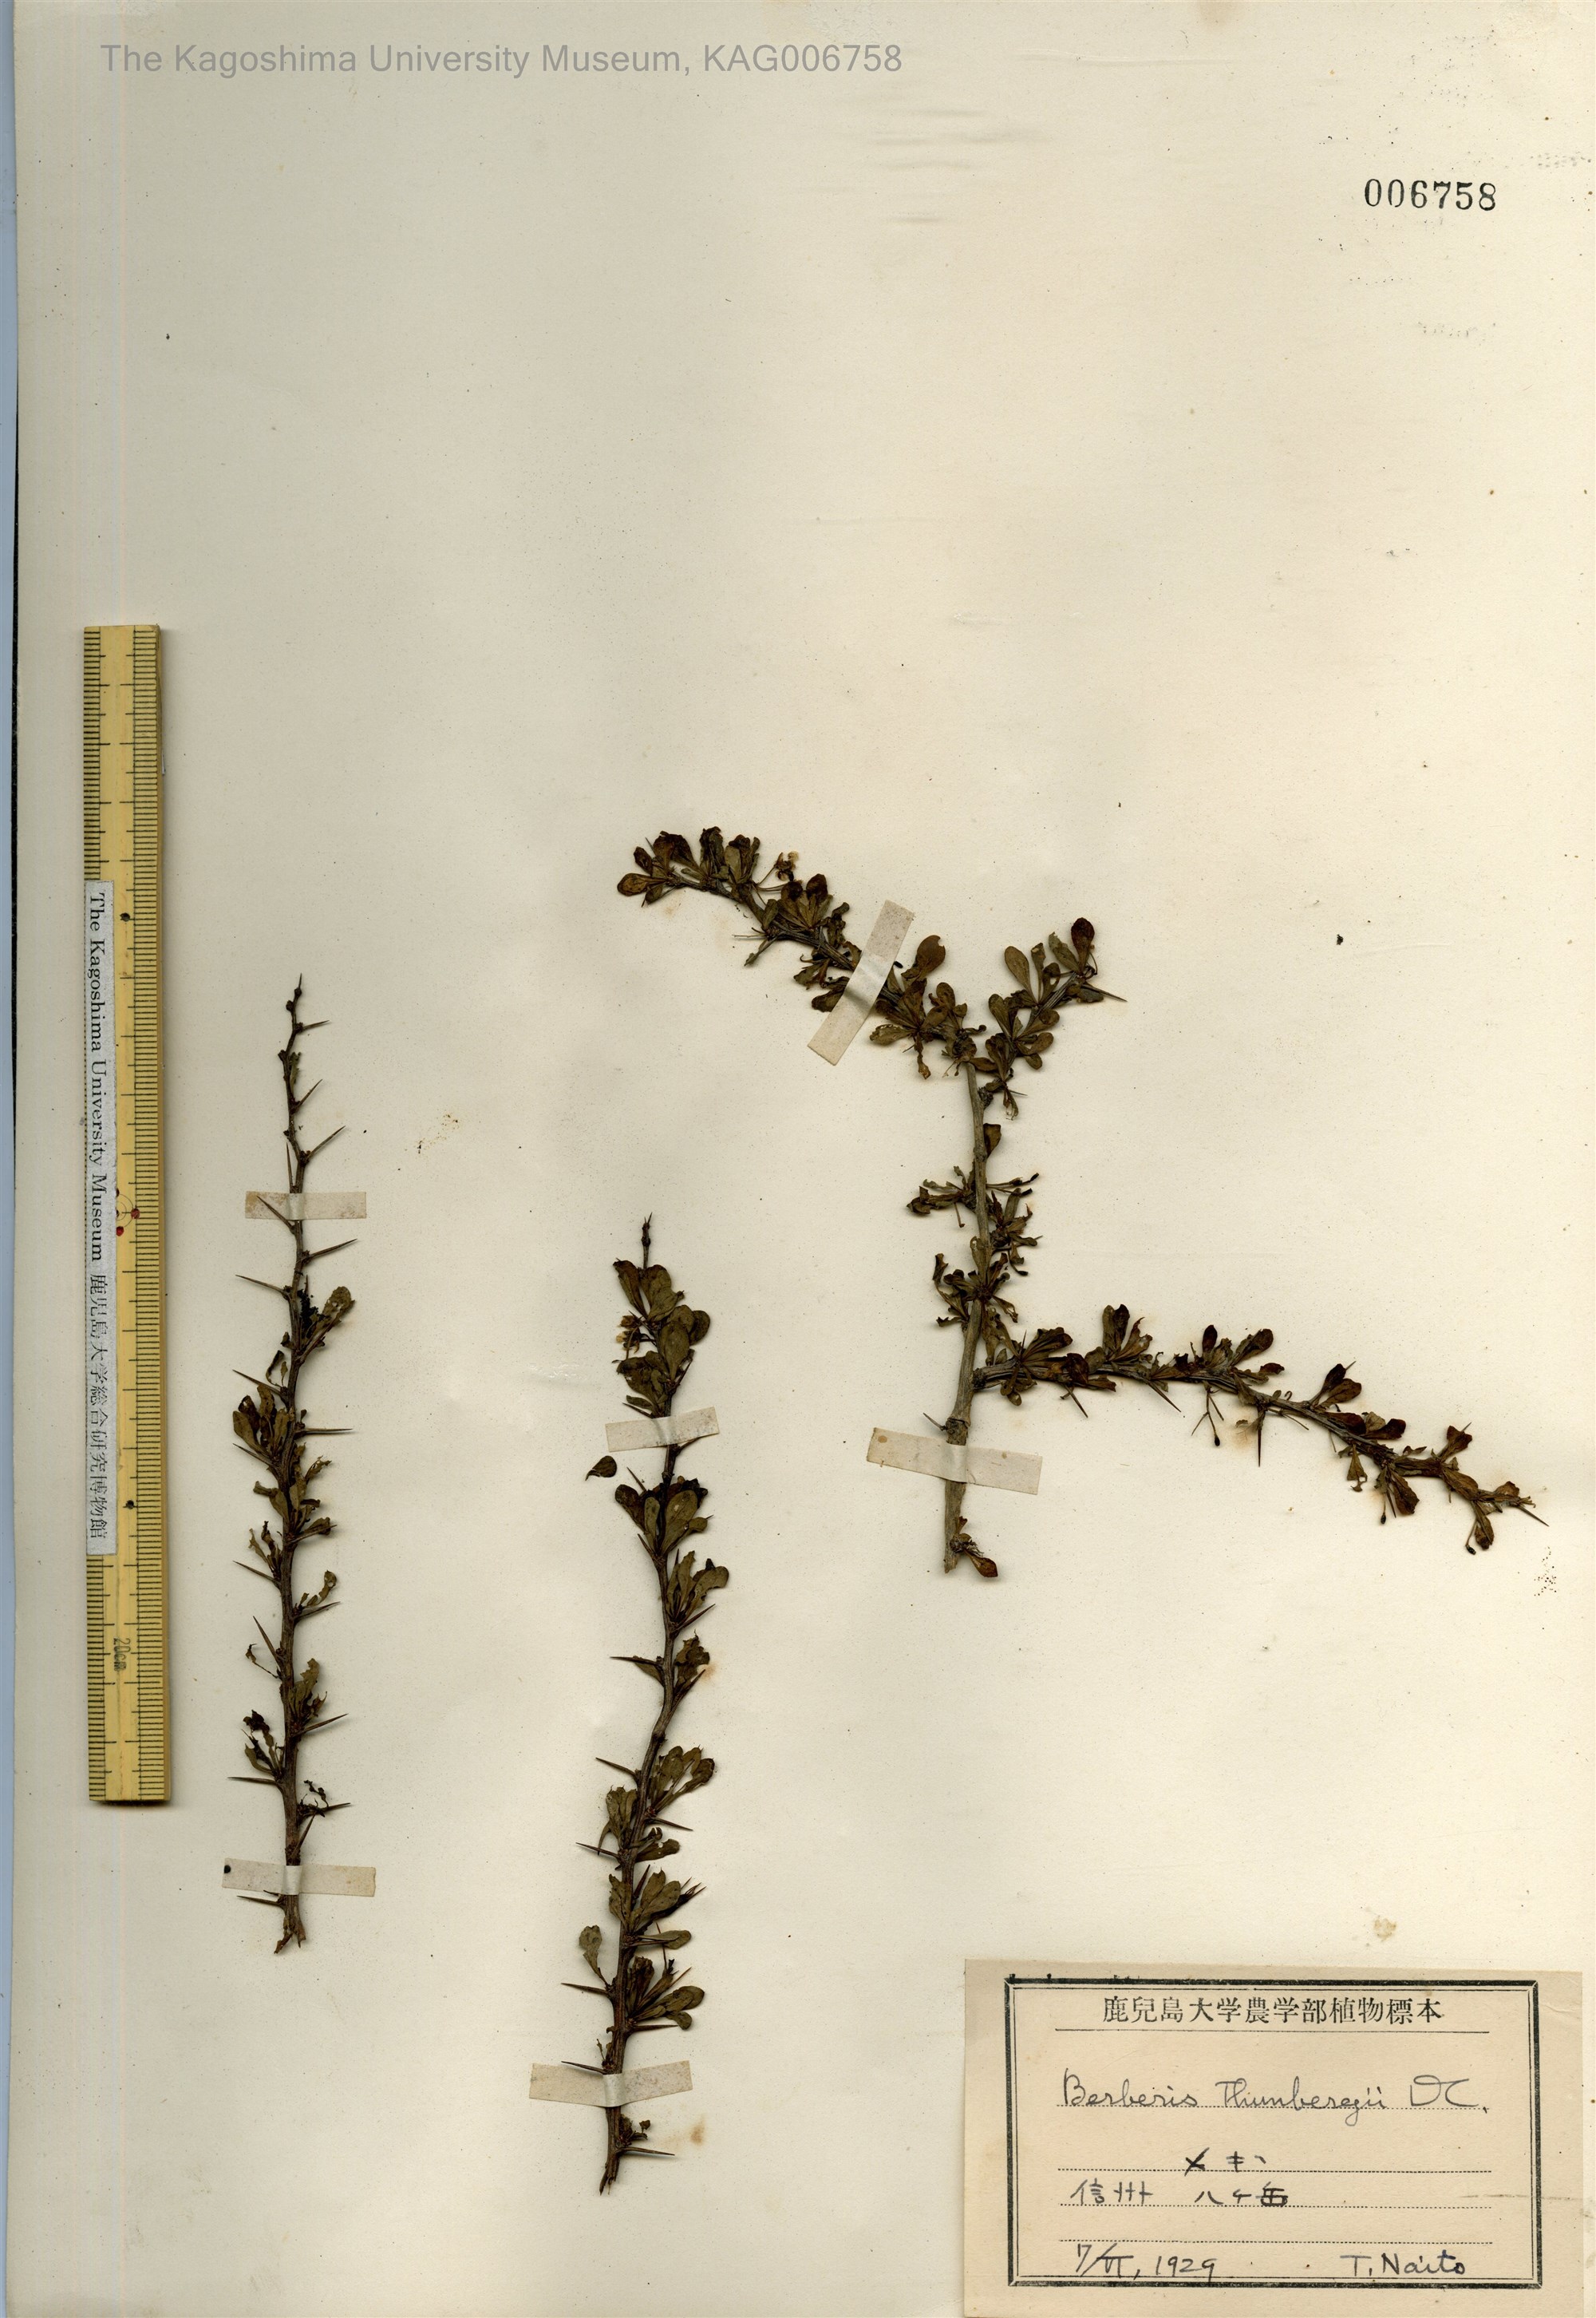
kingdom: Plantae
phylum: Tracheophyta
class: Magnoliopsida
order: Ranunculales
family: Berberidaceae
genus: Berberis
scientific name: Berberis thunbergii
